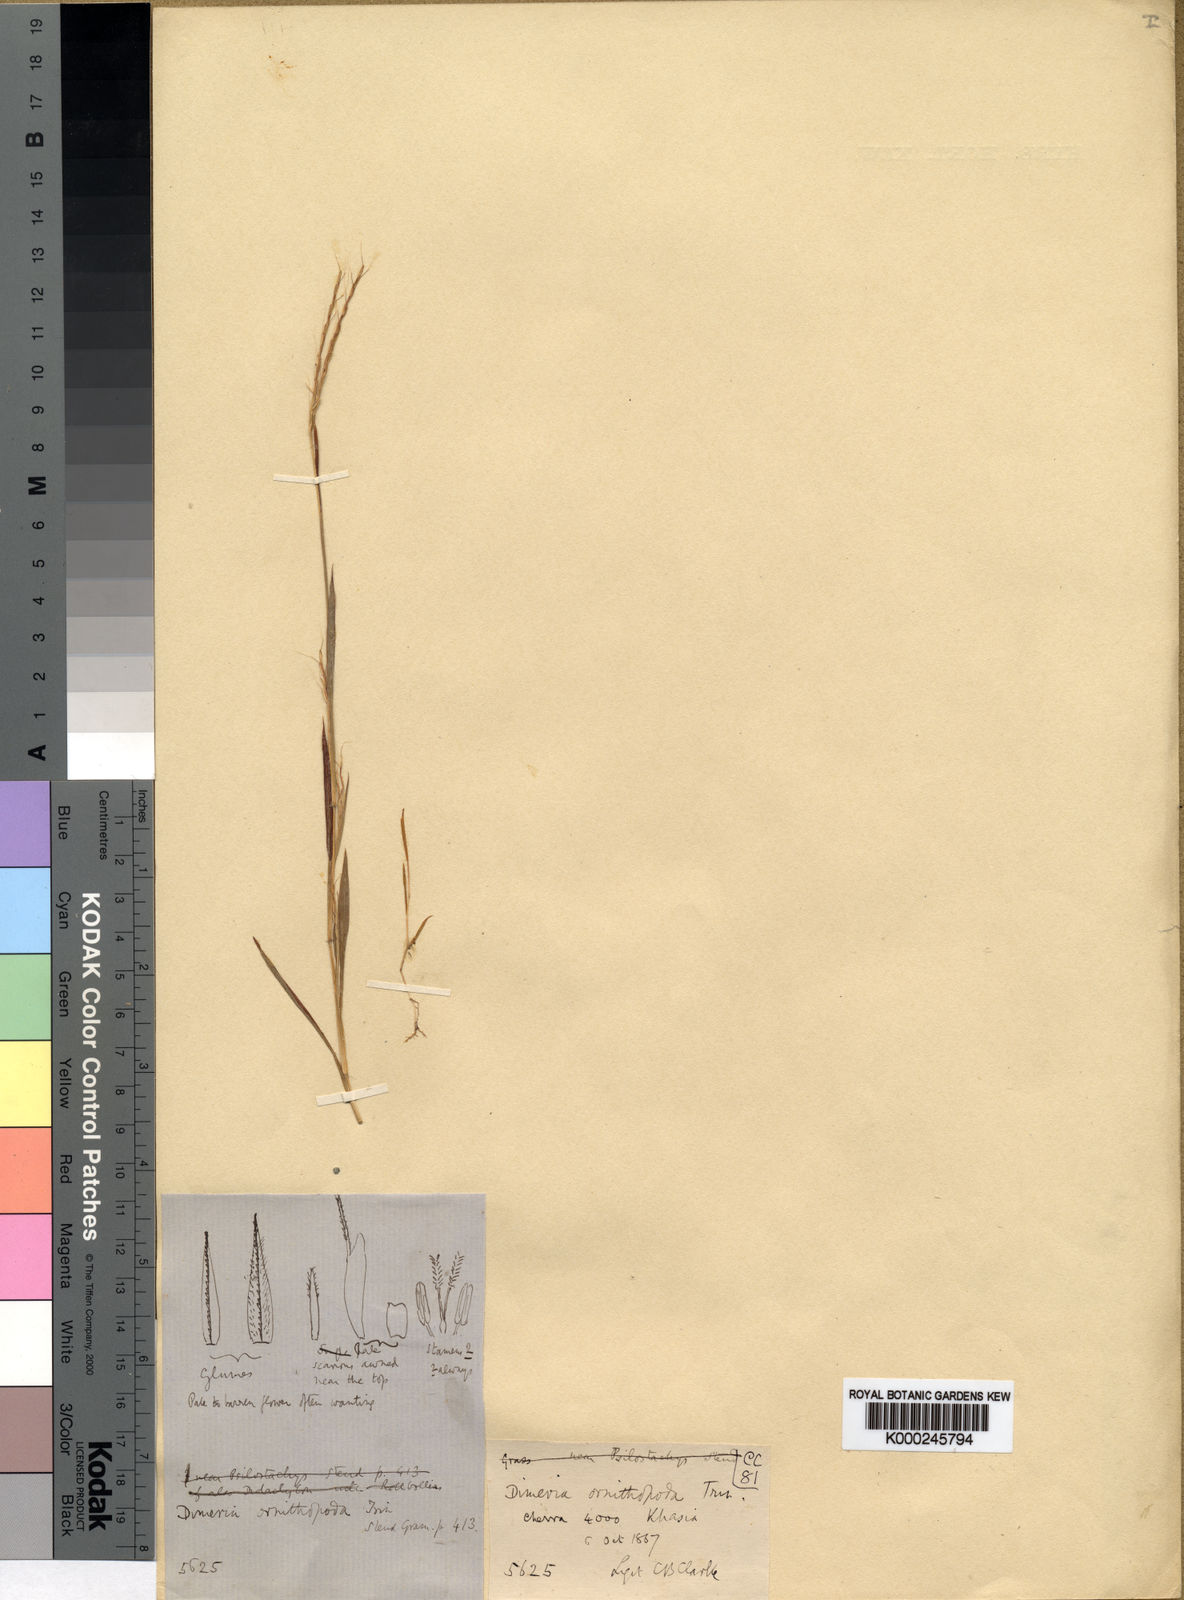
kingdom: Plantae
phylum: Tracheophyta
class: Liliopsida
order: Poales
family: Poaceae
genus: Dimeria
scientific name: Dimeria ornithopoda
